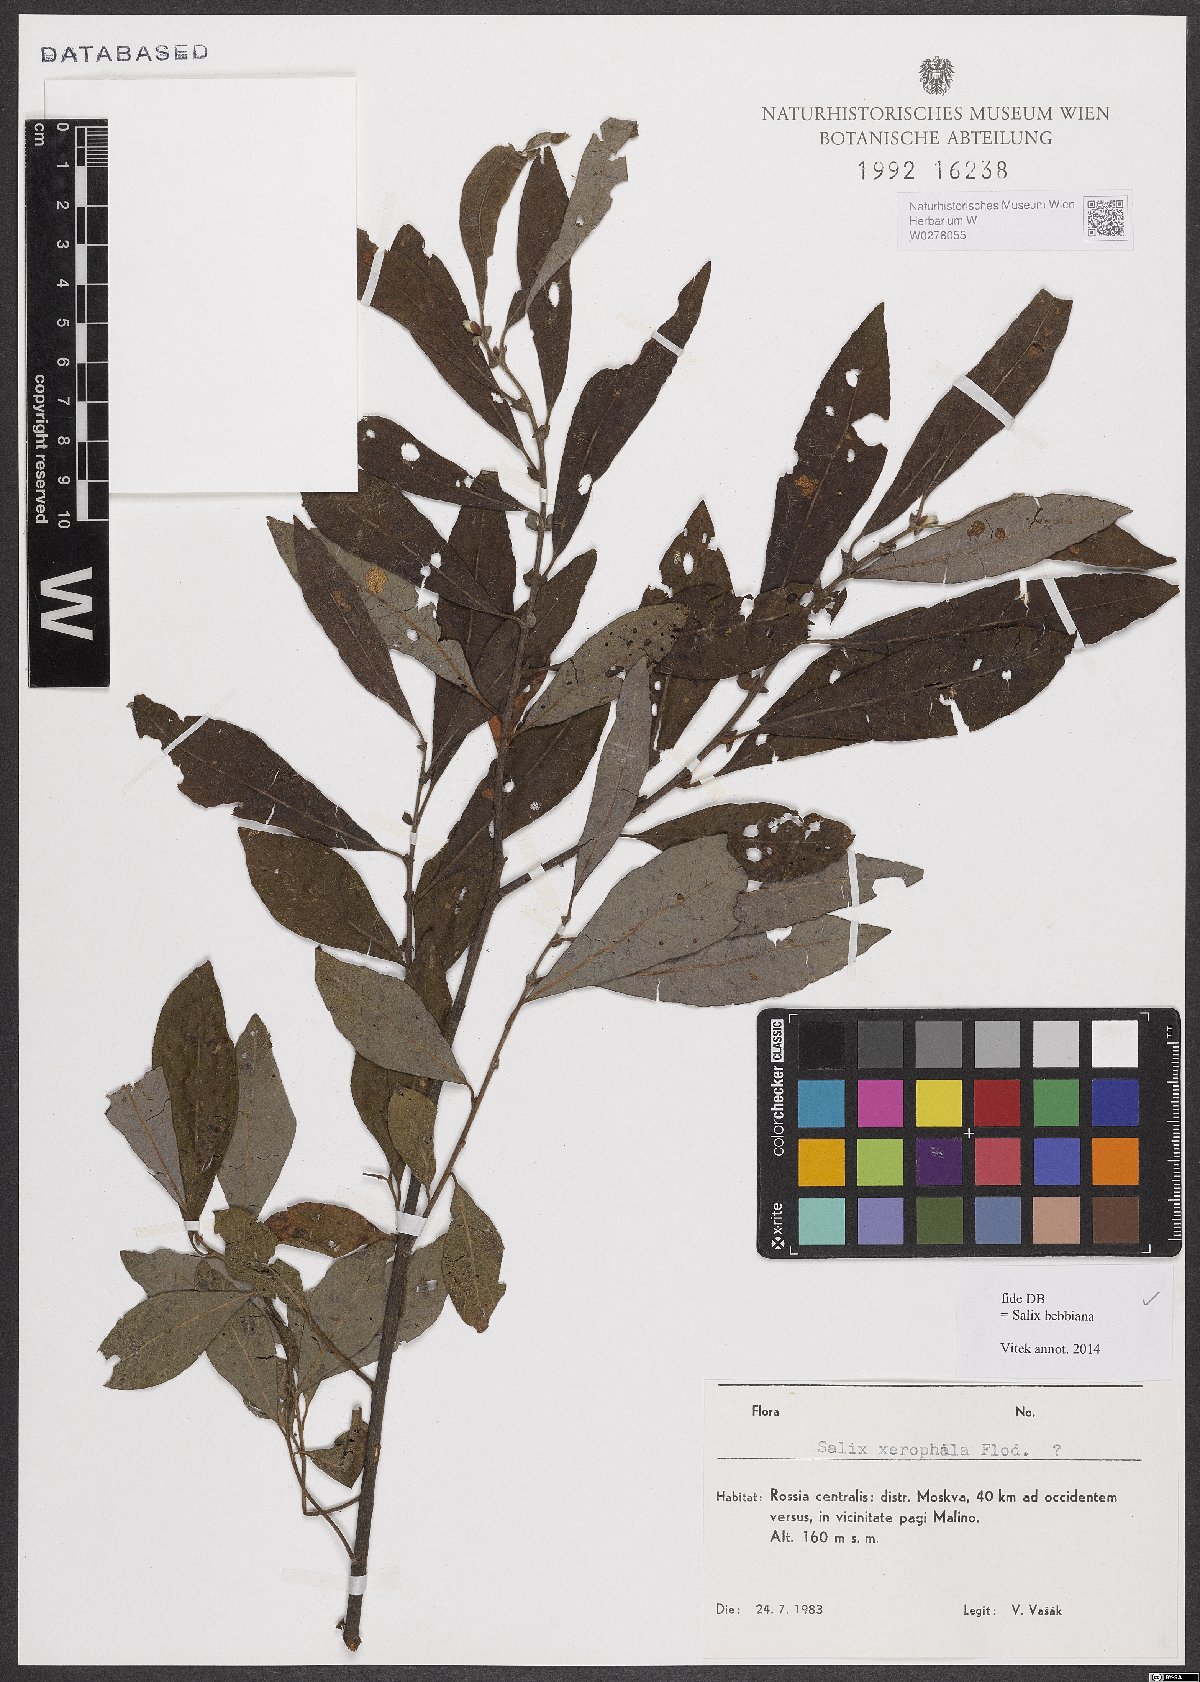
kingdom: Plantae
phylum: Tracheophyta
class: Magnoliopsida
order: Malpighiales
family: Salicaceae
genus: Salix
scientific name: Salix bebbiana
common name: Bebb's willow
